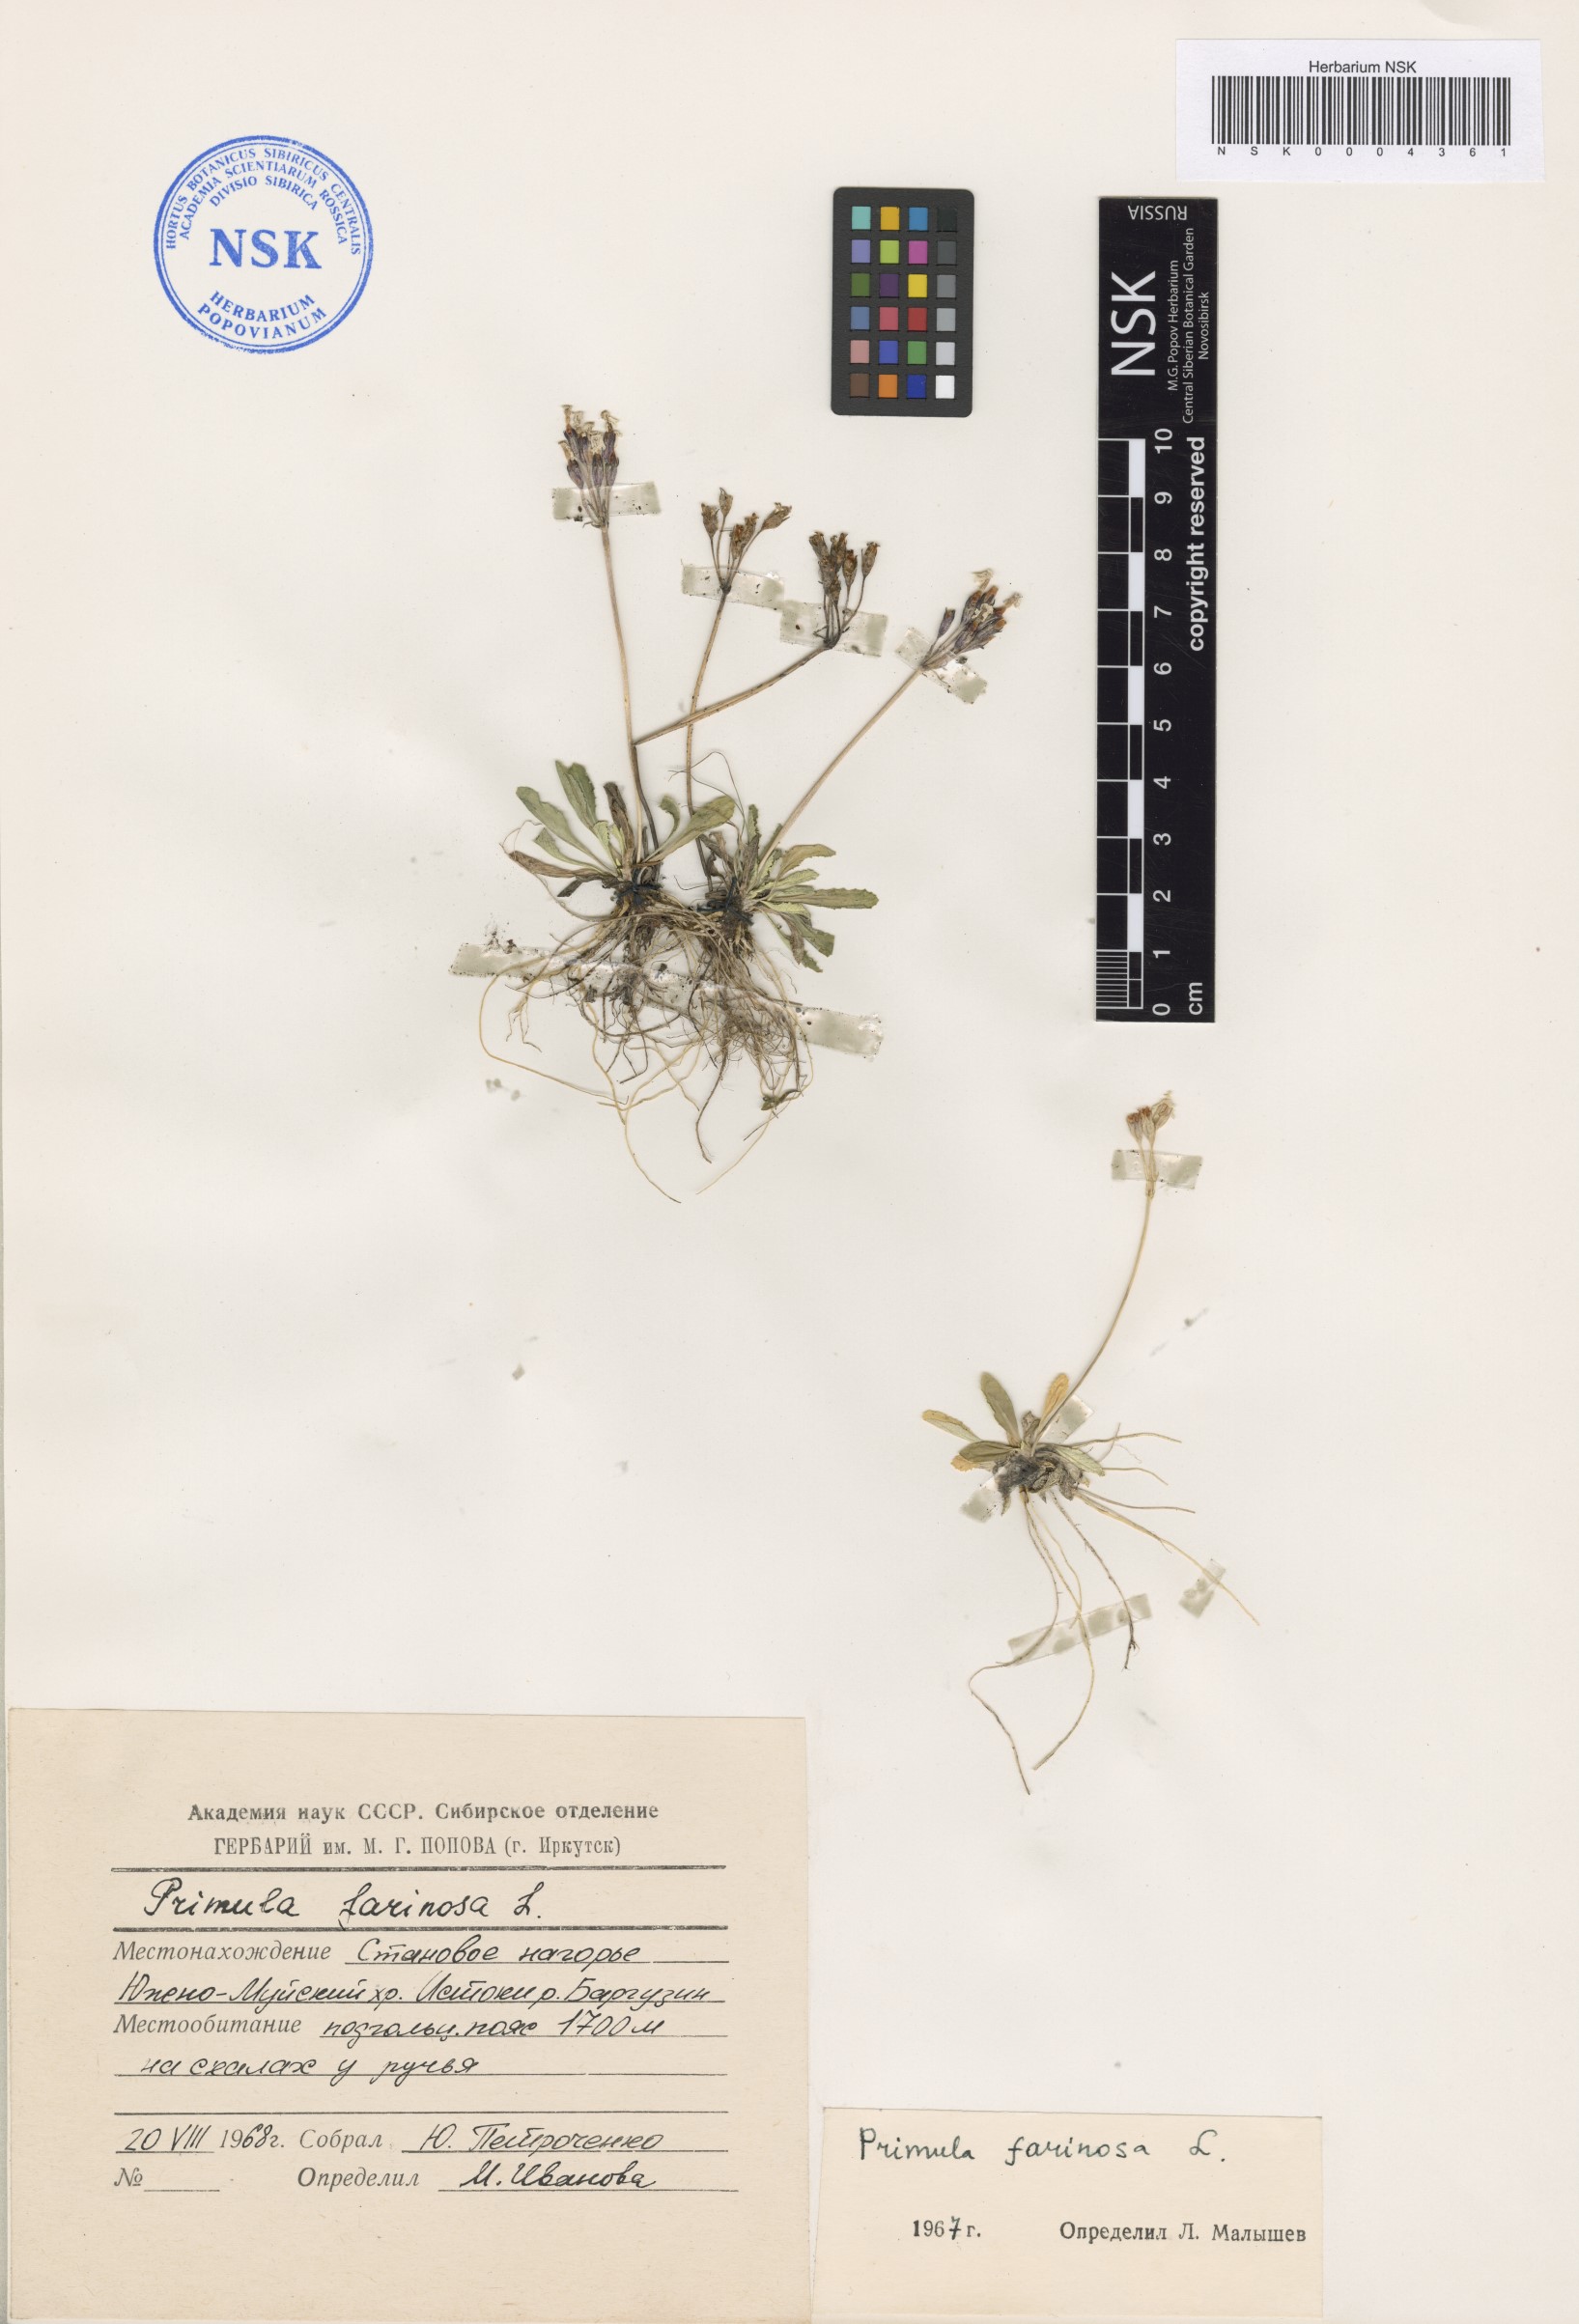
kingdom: Plantae
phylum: Tracheophyta
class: Magnoliopsida
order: Ericales
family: Primulaceae
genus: Primula
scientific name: Primula farinosa
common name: Bird's-eye primrose
